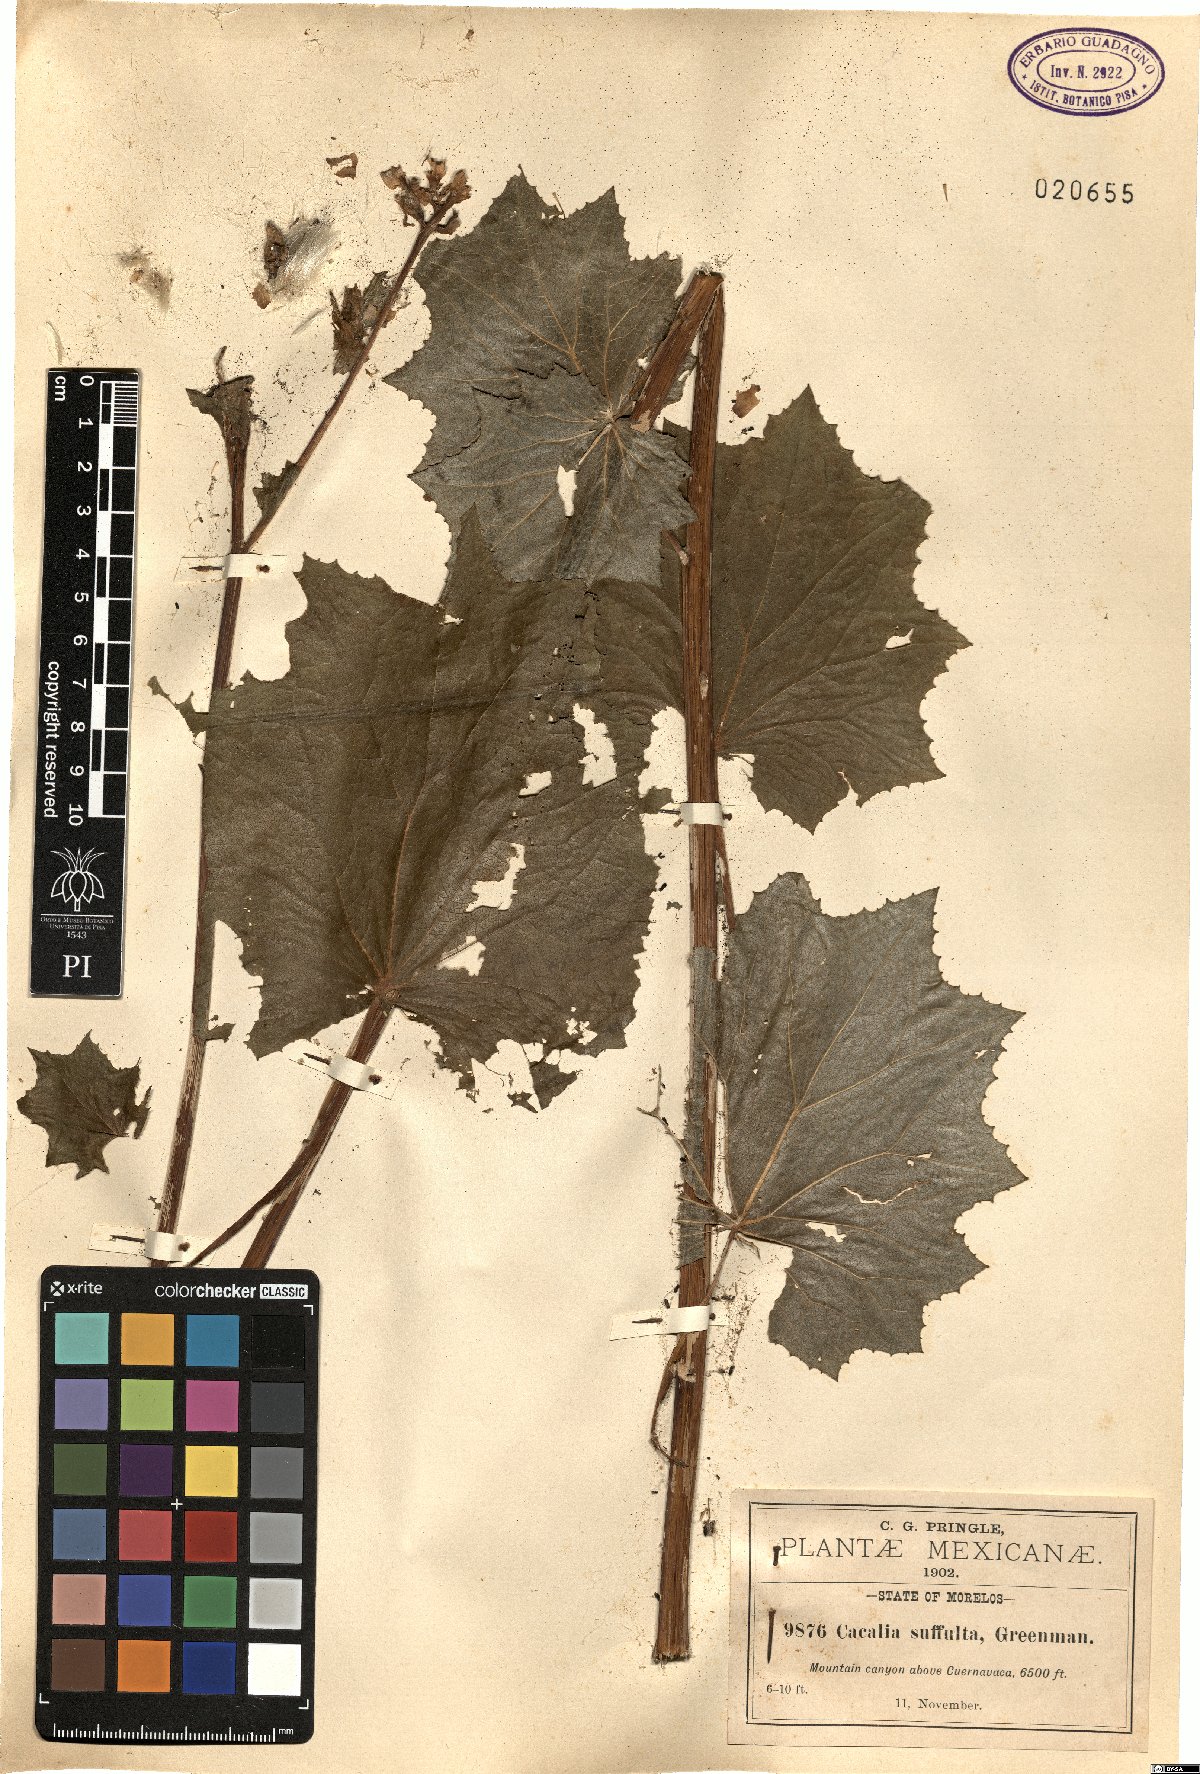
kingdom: Plantae
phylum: Tracheophyta
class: Magnoliopsida
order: Asterales
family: Asteraceae
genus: Roldana
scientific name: Roldana suffulta
